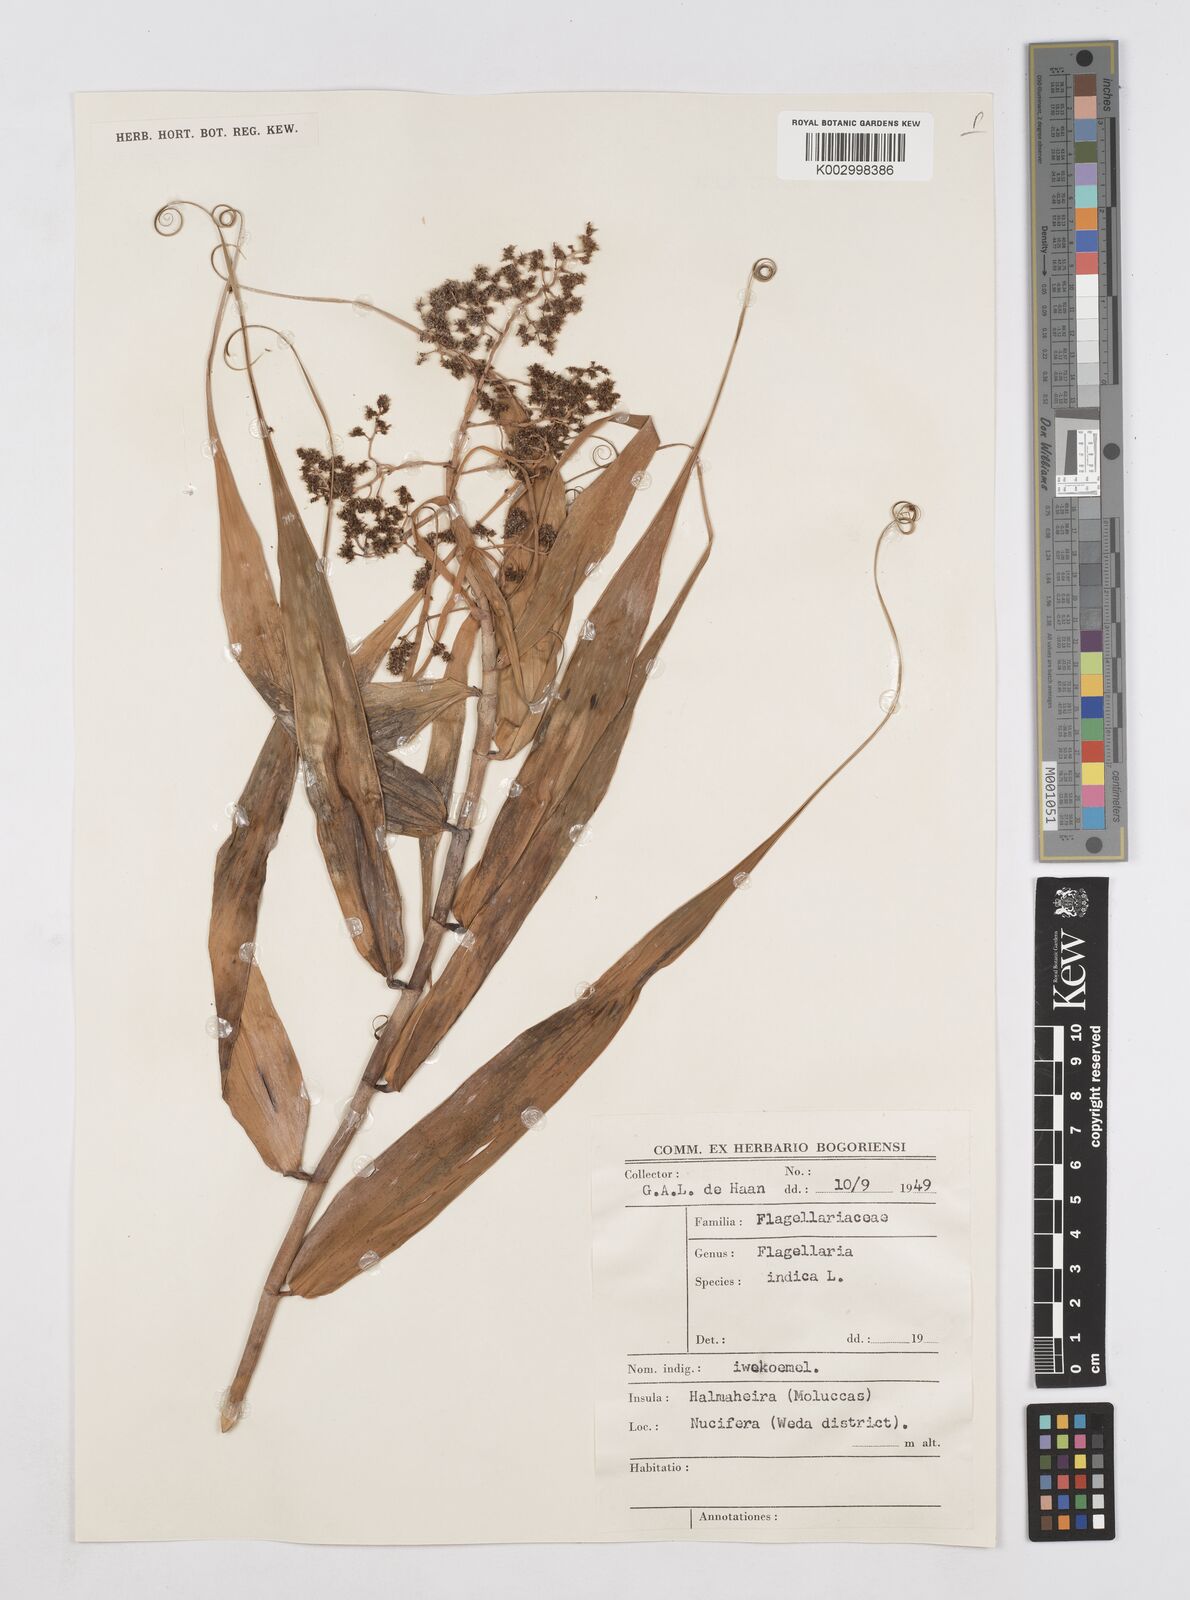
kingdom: Plantae
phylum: Tracheophyta
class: Liliopsida
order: Poales
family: Flagellariaceae
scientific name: Flagellariaceae
